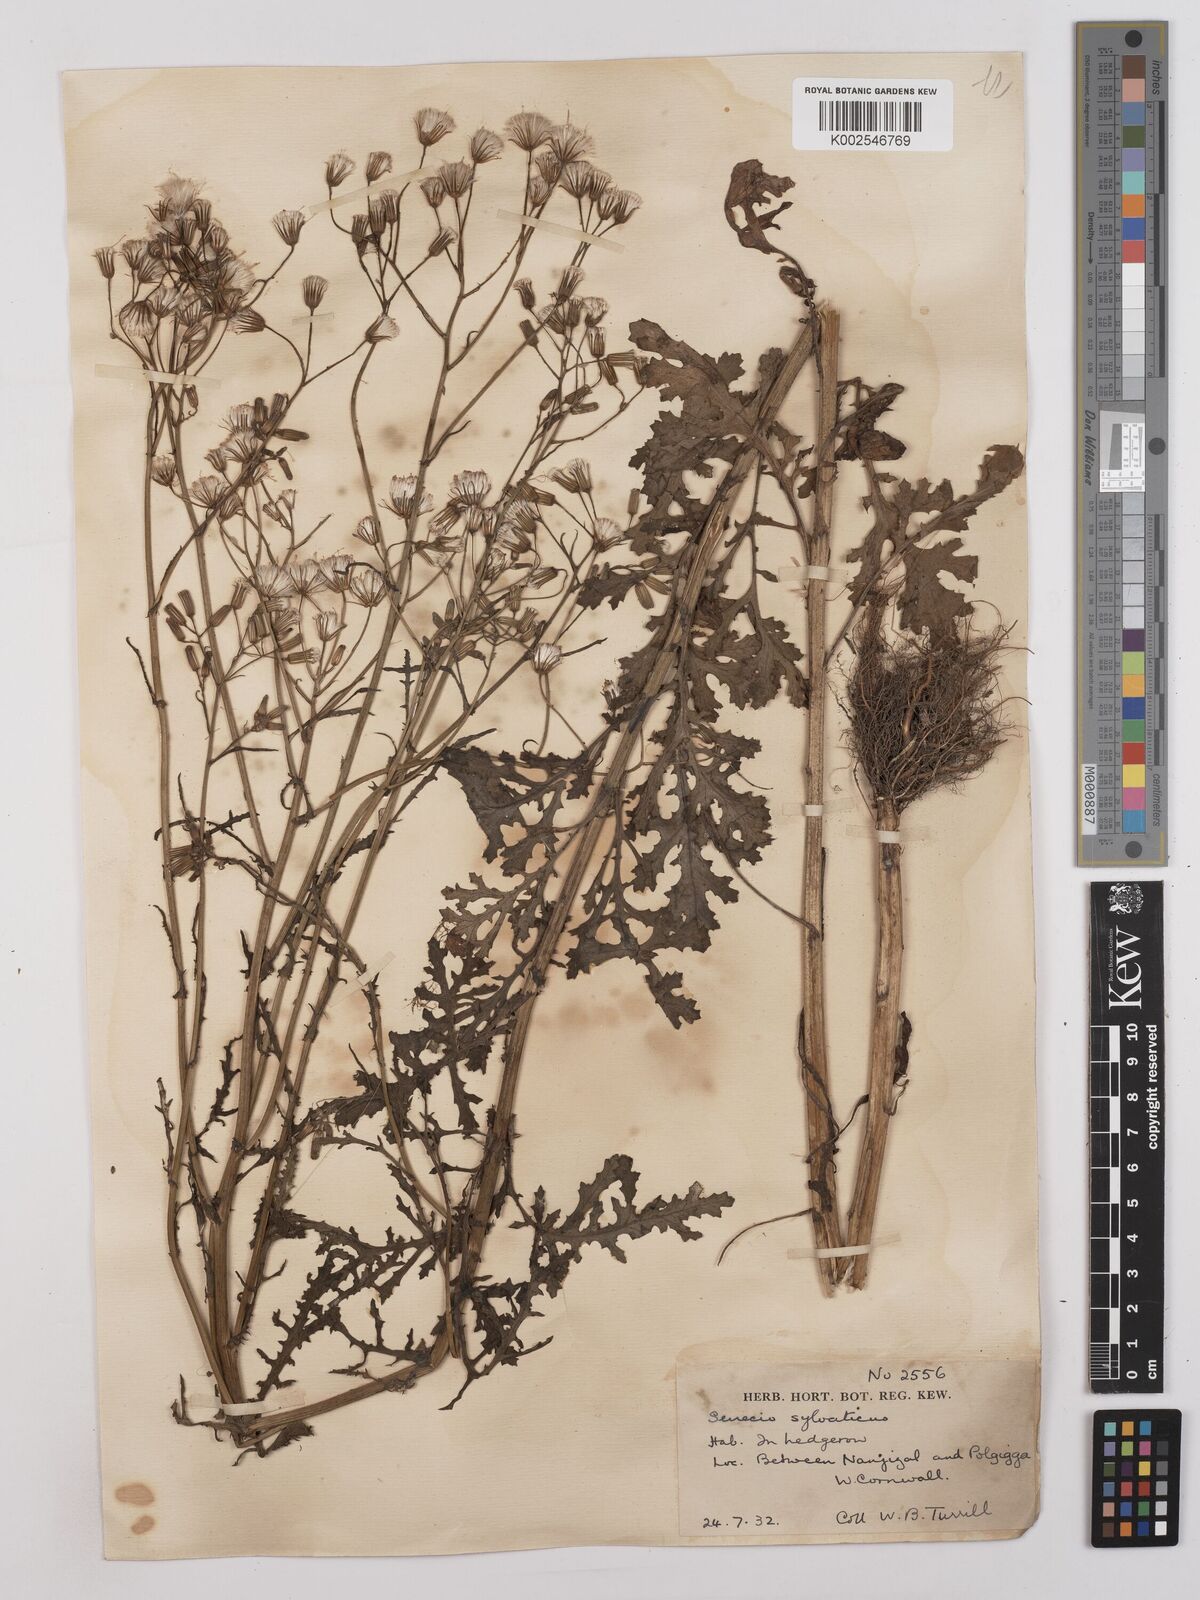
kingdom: Plantae
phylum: Tracheophyta
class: Magnoliopsida
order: Asterales
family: Asteraceae
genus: Senecio
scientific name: Senecio sylvaticus
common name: Woodland ragwort
